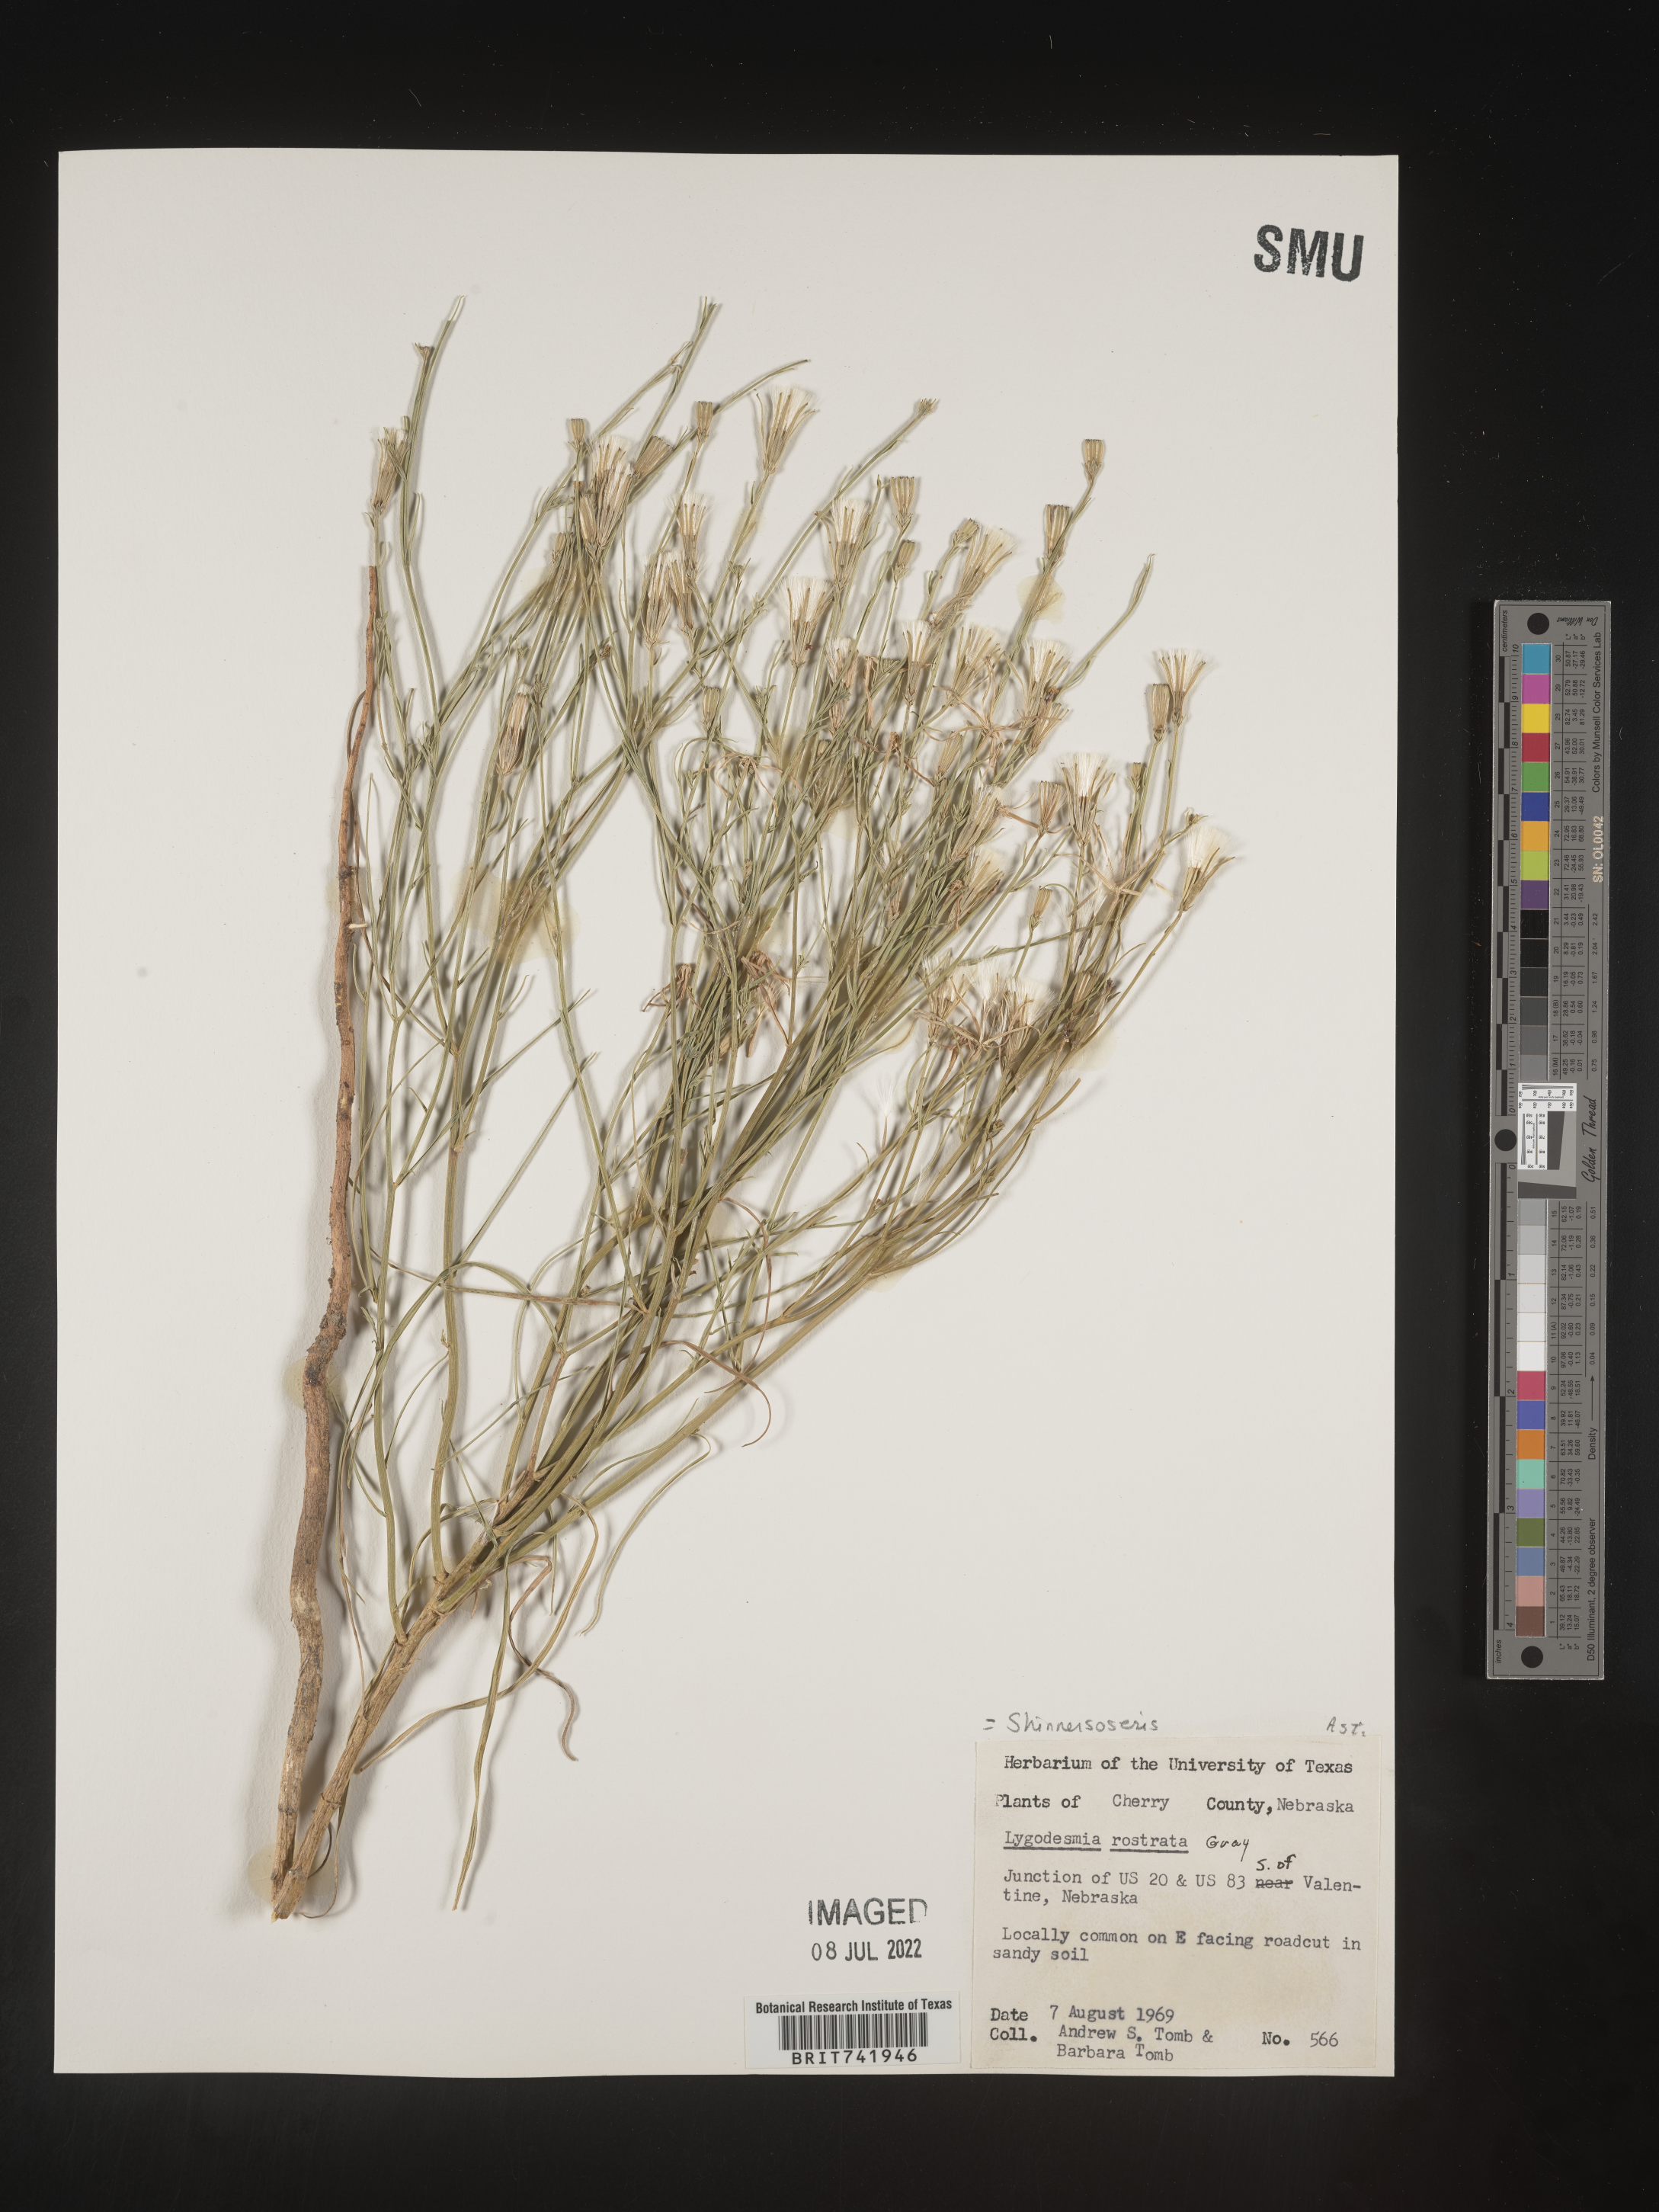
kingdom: Plantae
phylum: Tracheophyta
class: Magnoliopsida
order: Asterales
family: Asteraceae
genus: Shinnersoseris
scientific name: Shinnersoseris
